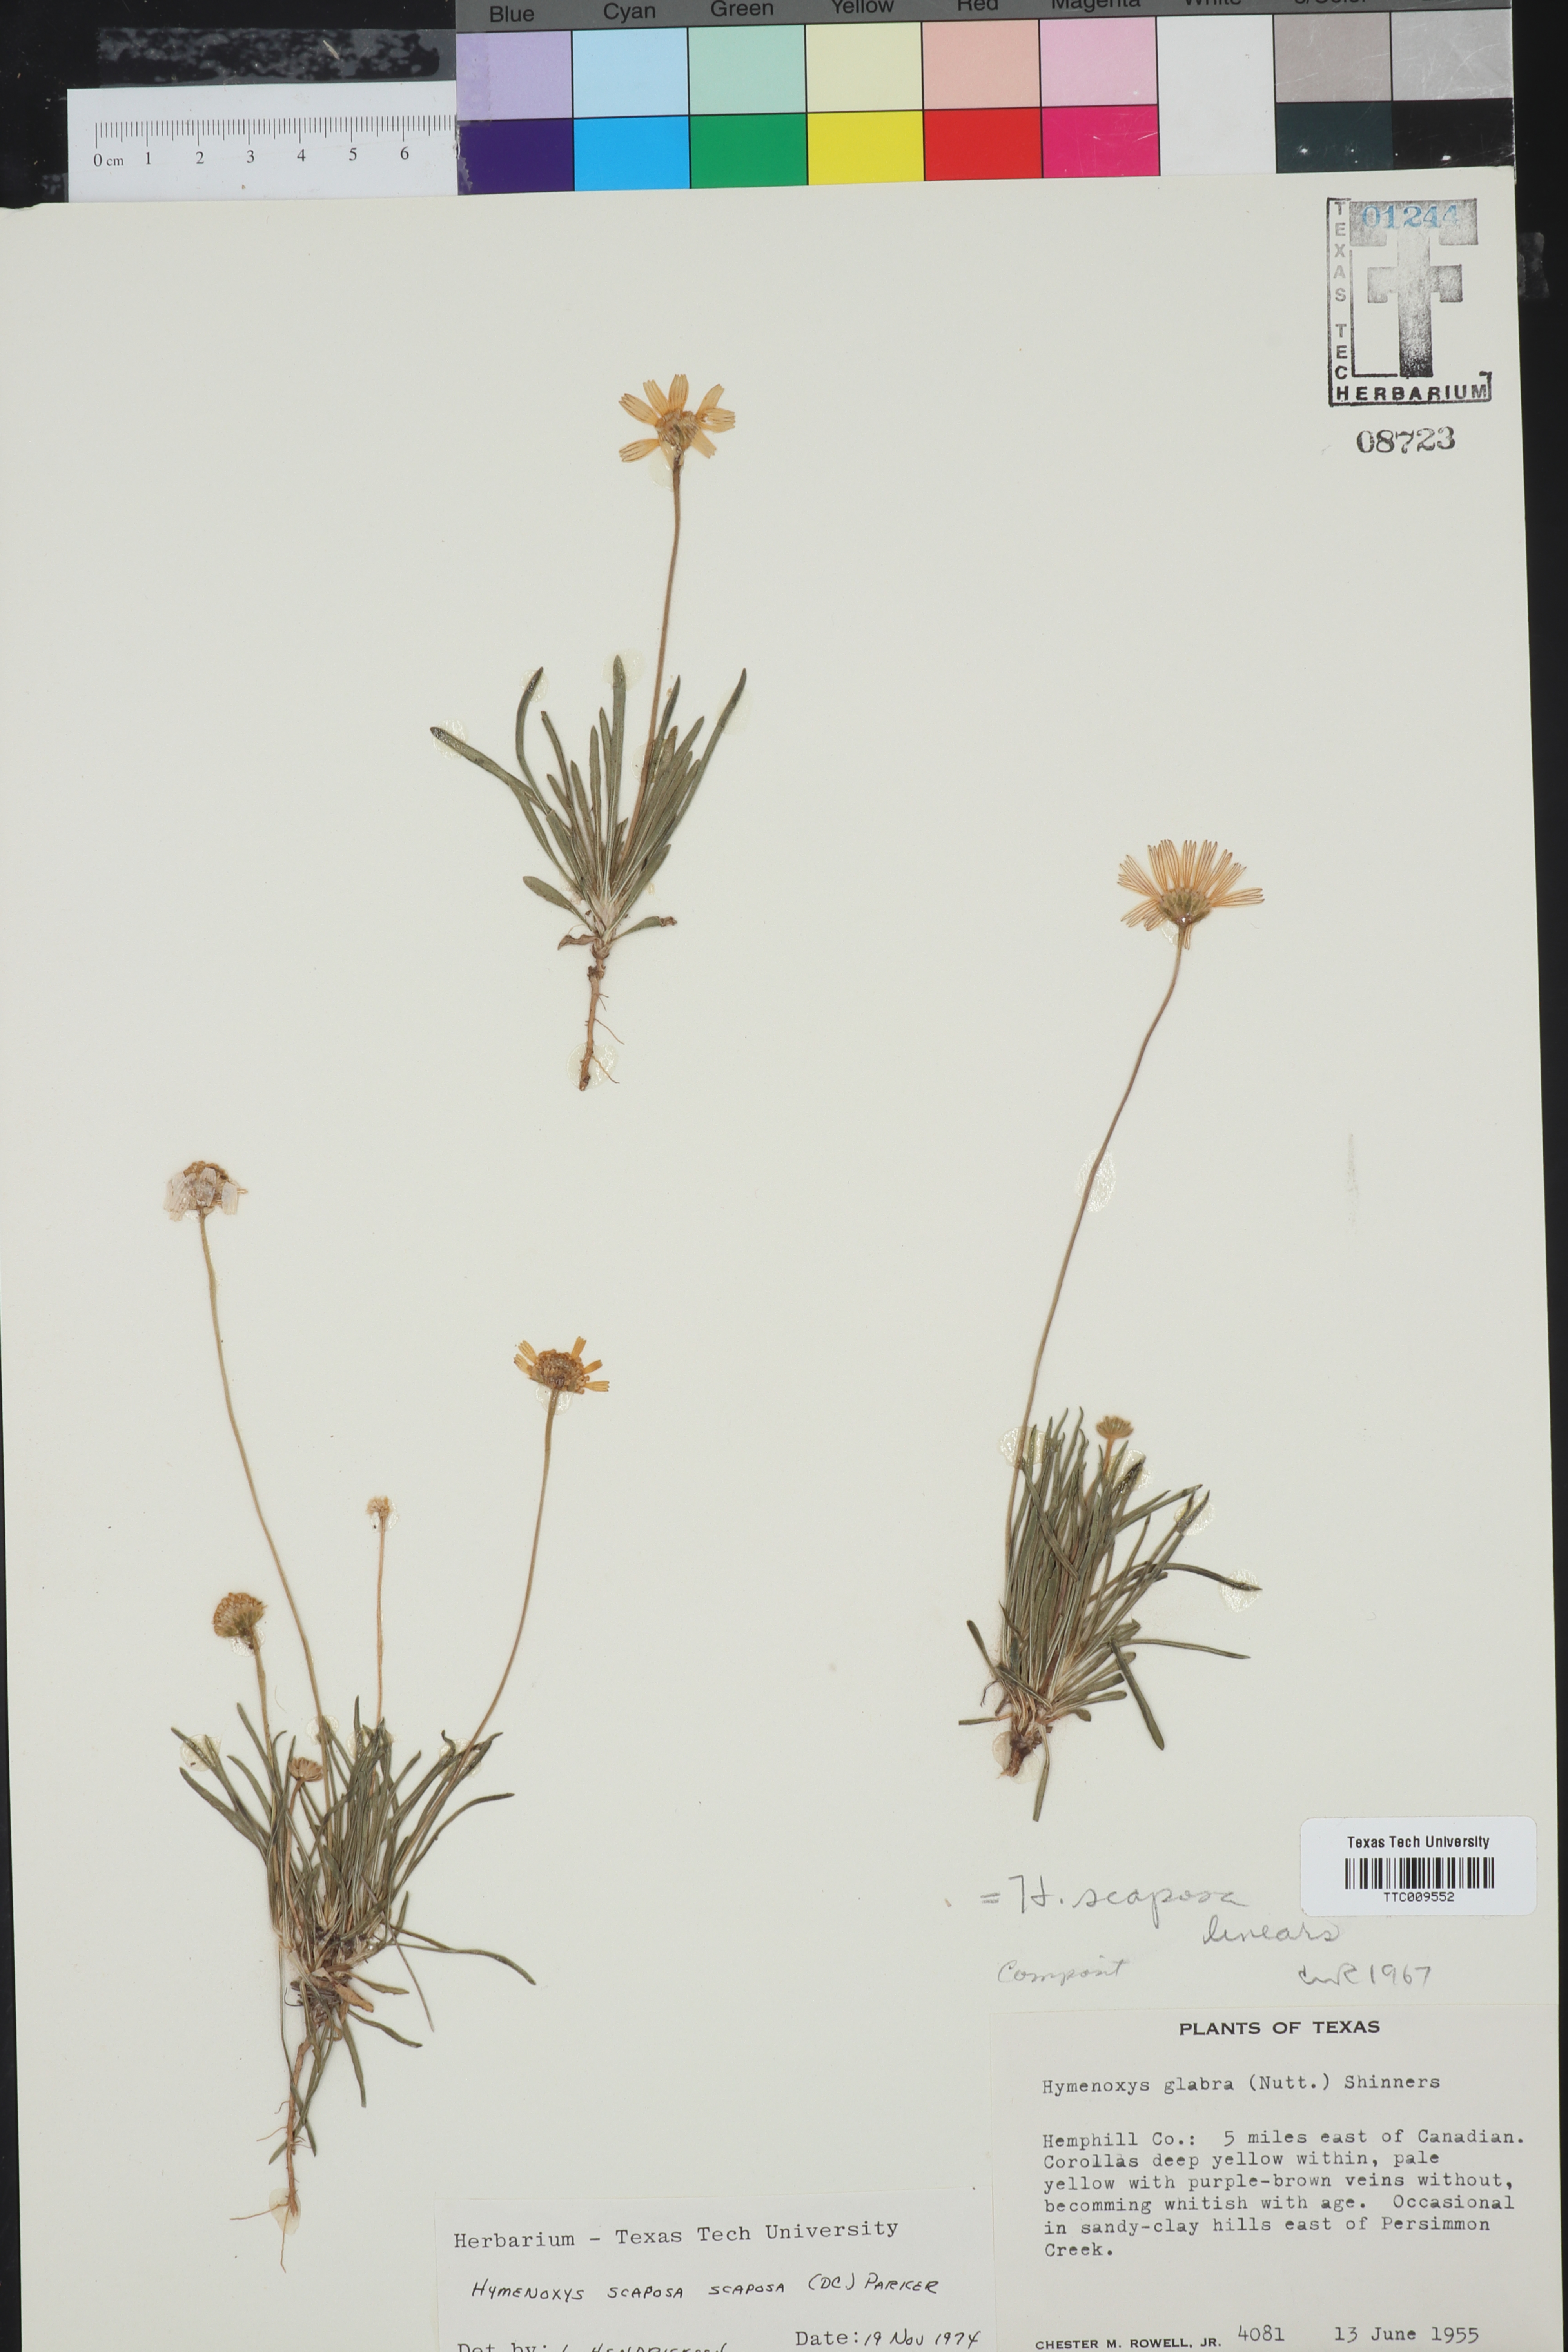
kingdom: Plantae
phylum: Tracheophyta
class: Magnoliopsida
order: Asterales
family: Asteraceae
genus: Tetraneuris
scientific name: Tetraneuris scaposa
